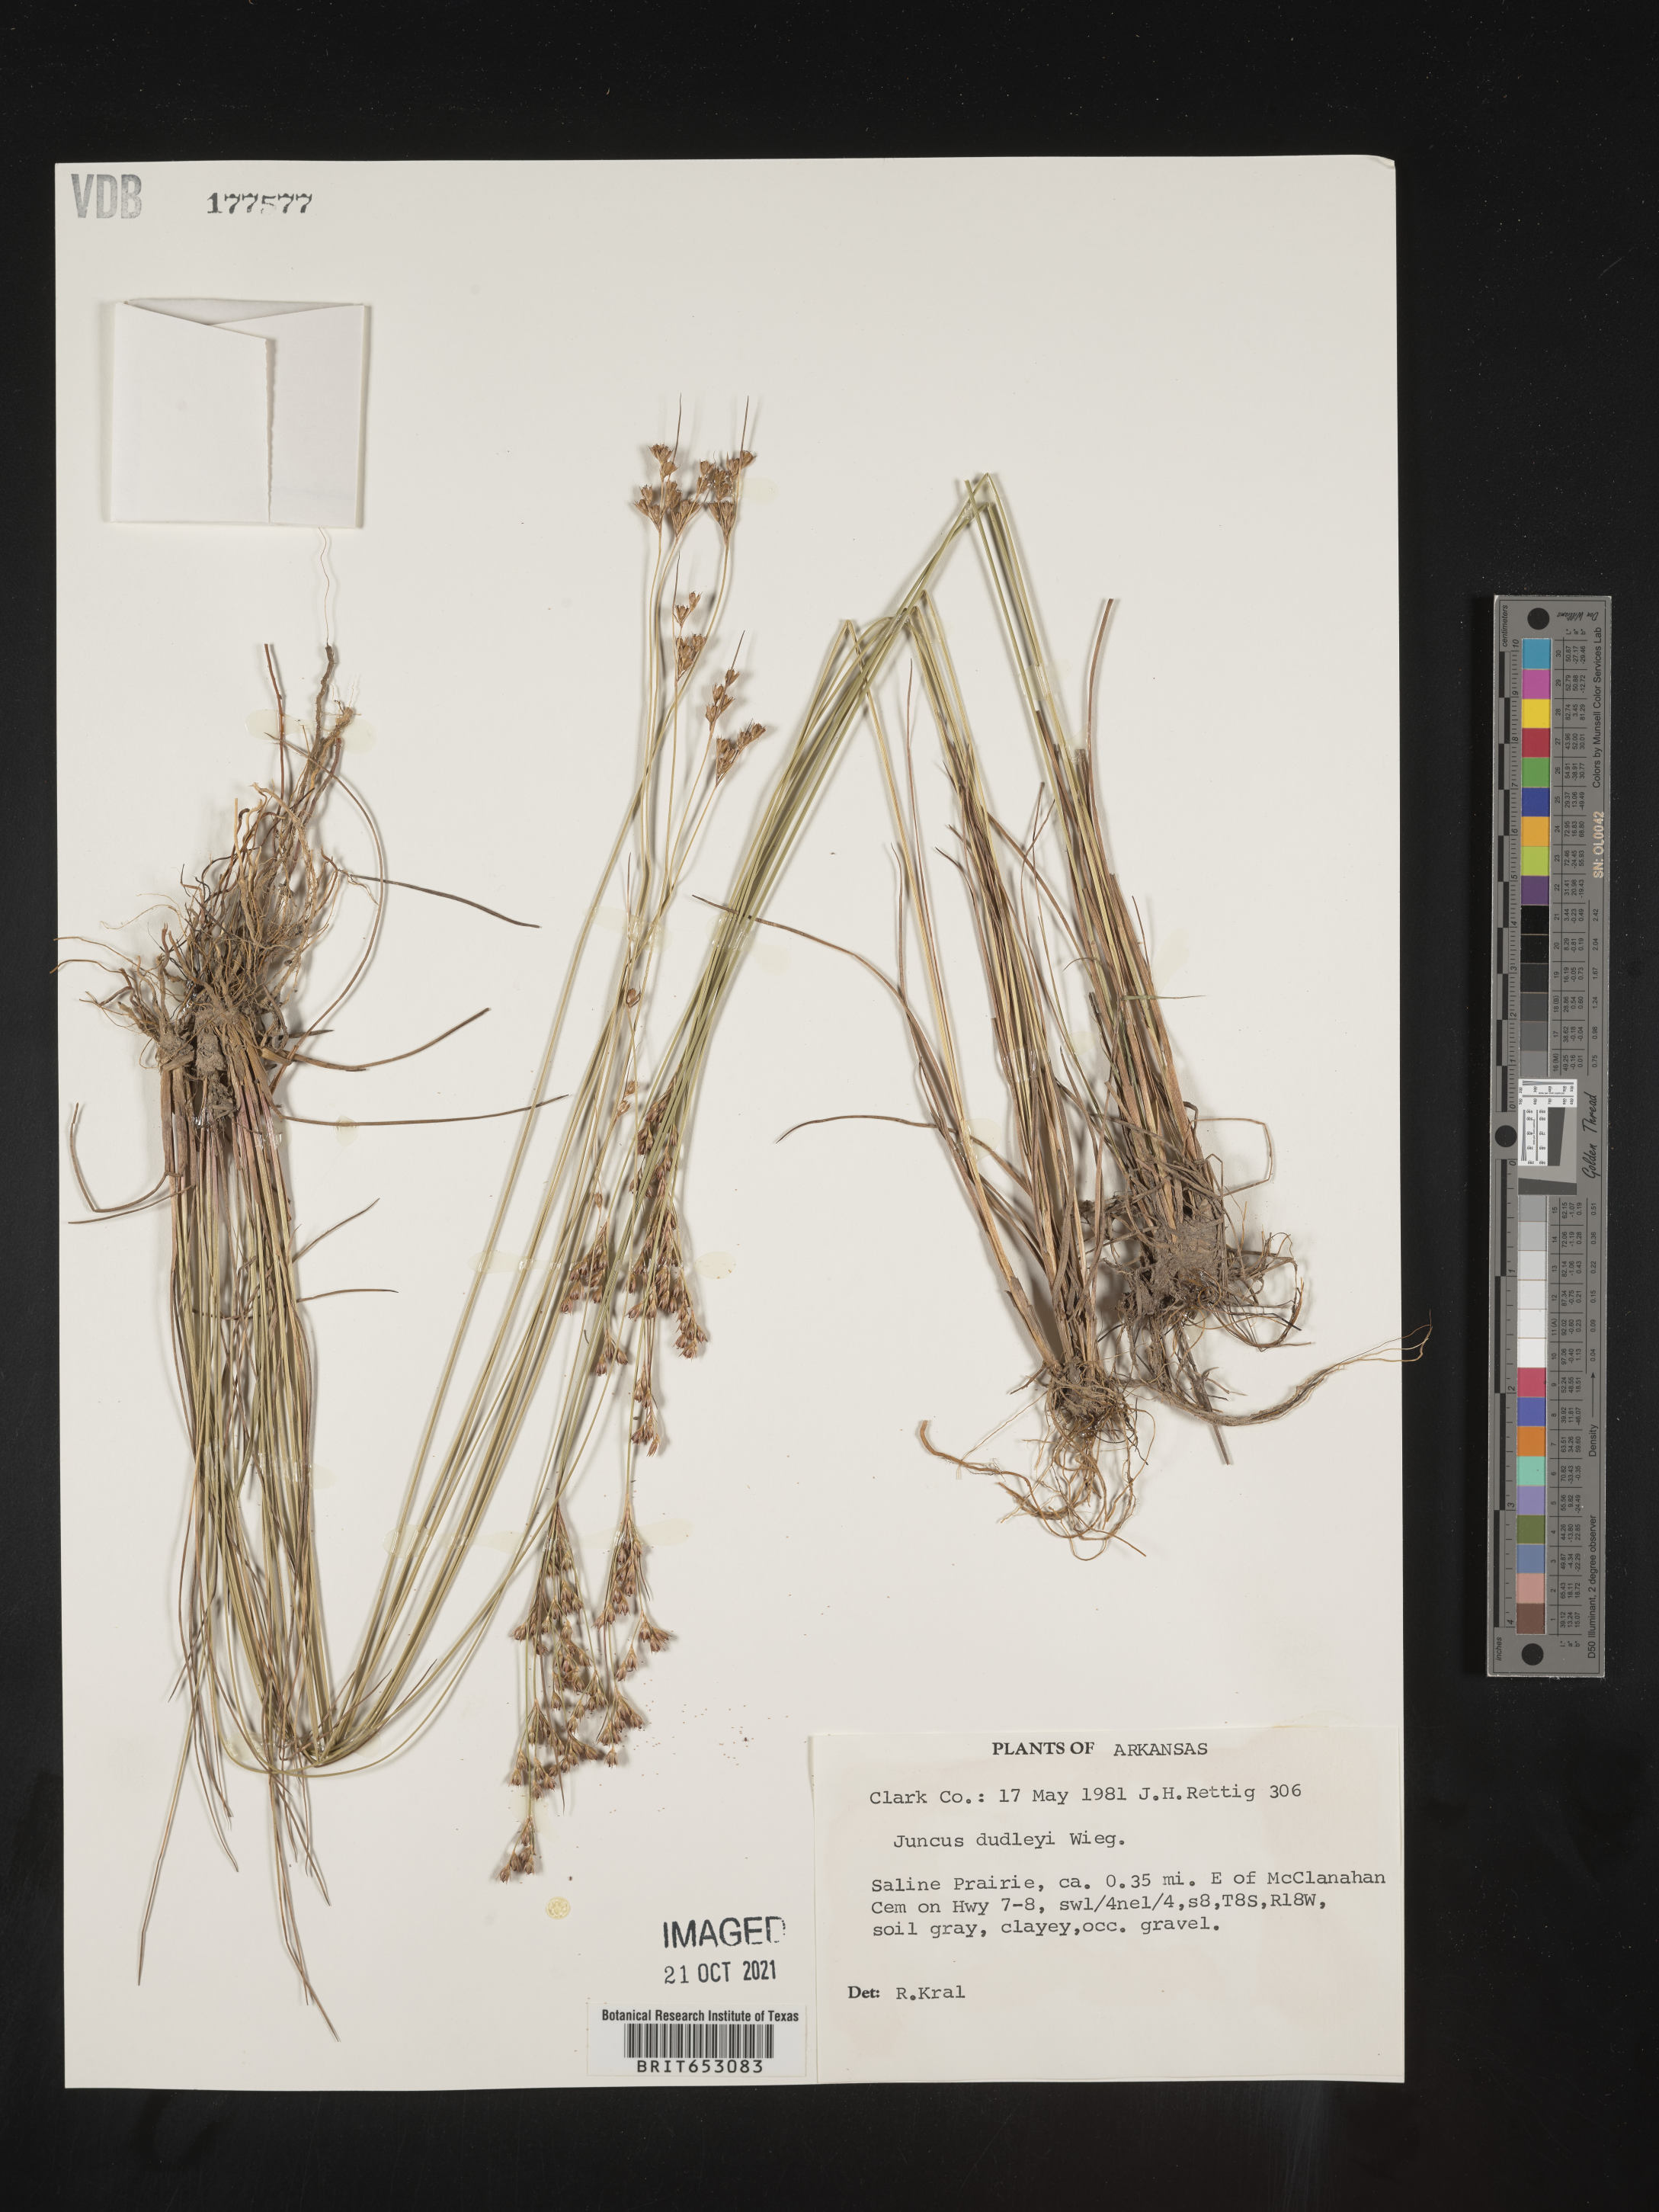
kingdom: Plantae
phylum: Tracheophyta
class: Liliopsida
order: Poales
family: Juncaceae
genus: Juncus
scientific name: Juncus dudleyi
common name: Dudley's rush
